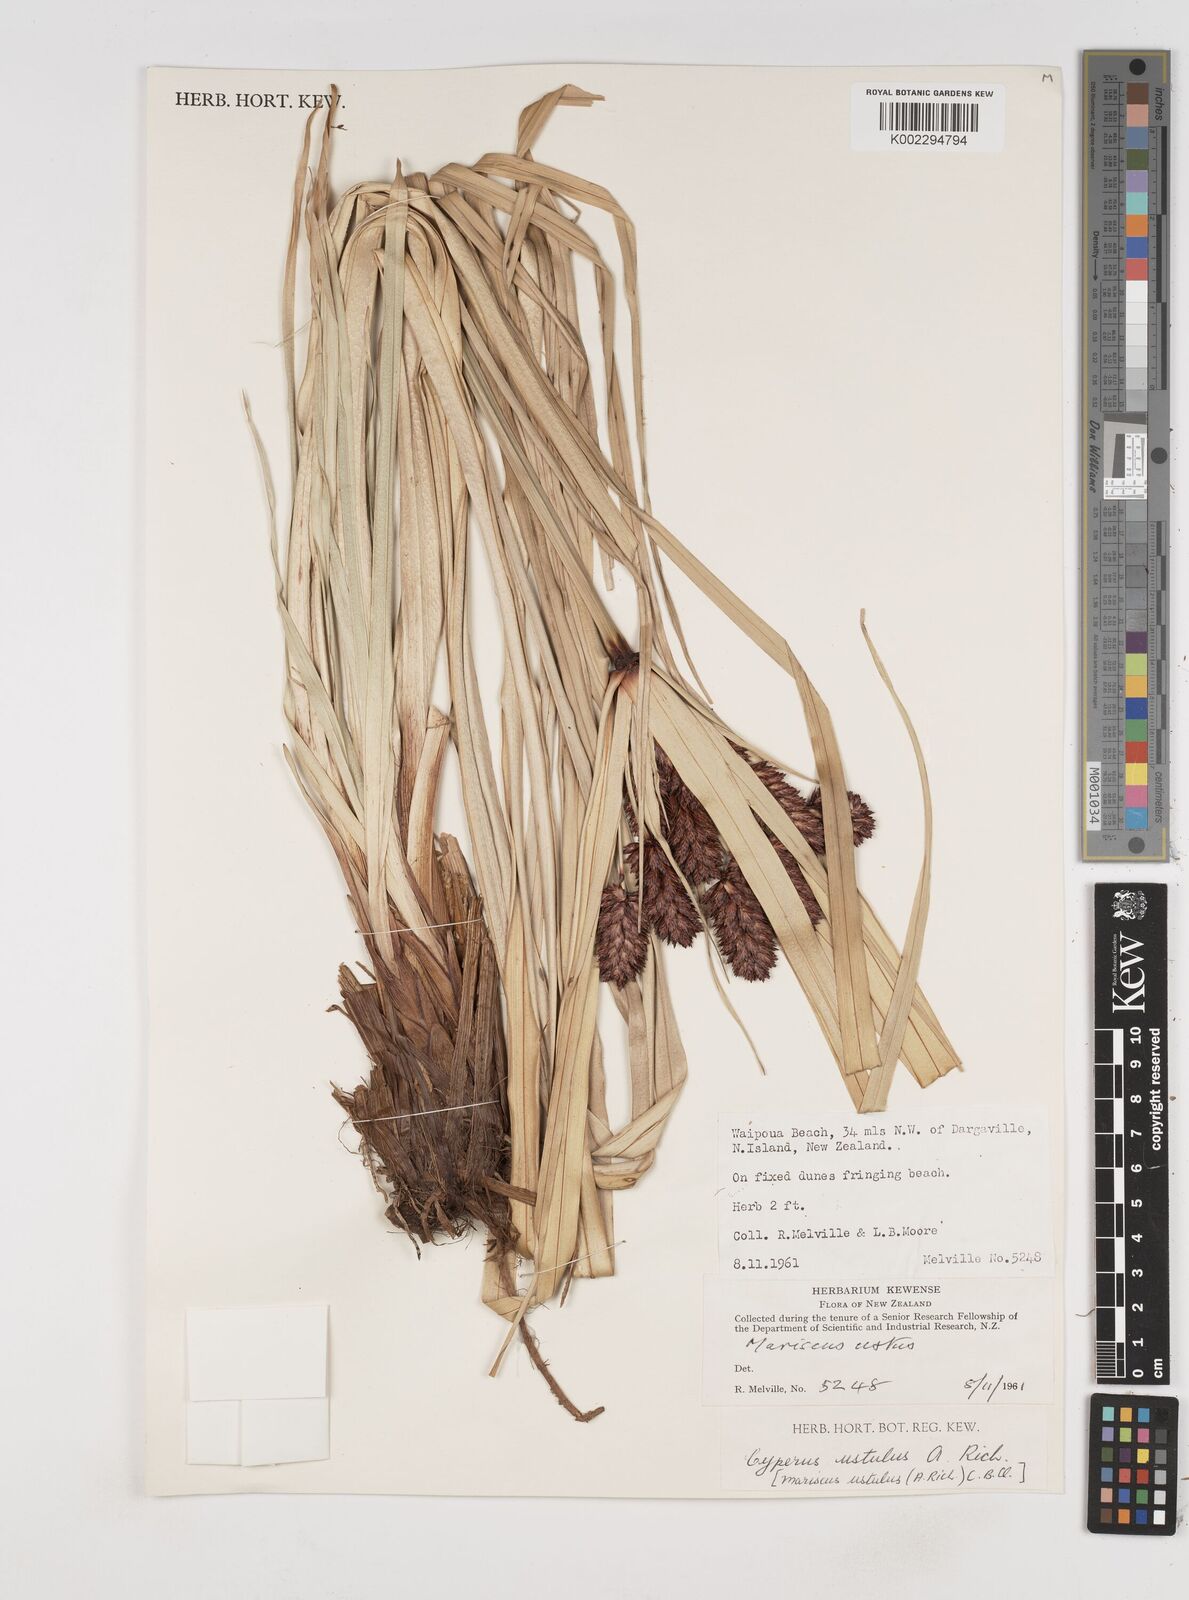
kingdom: Plantae
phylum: Tracheophyta
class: Liliopsida
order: Poales
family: Cyperaceae
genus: Cyperus
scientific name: Cyperus ustulatus
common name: Giant umbrella-sedge
